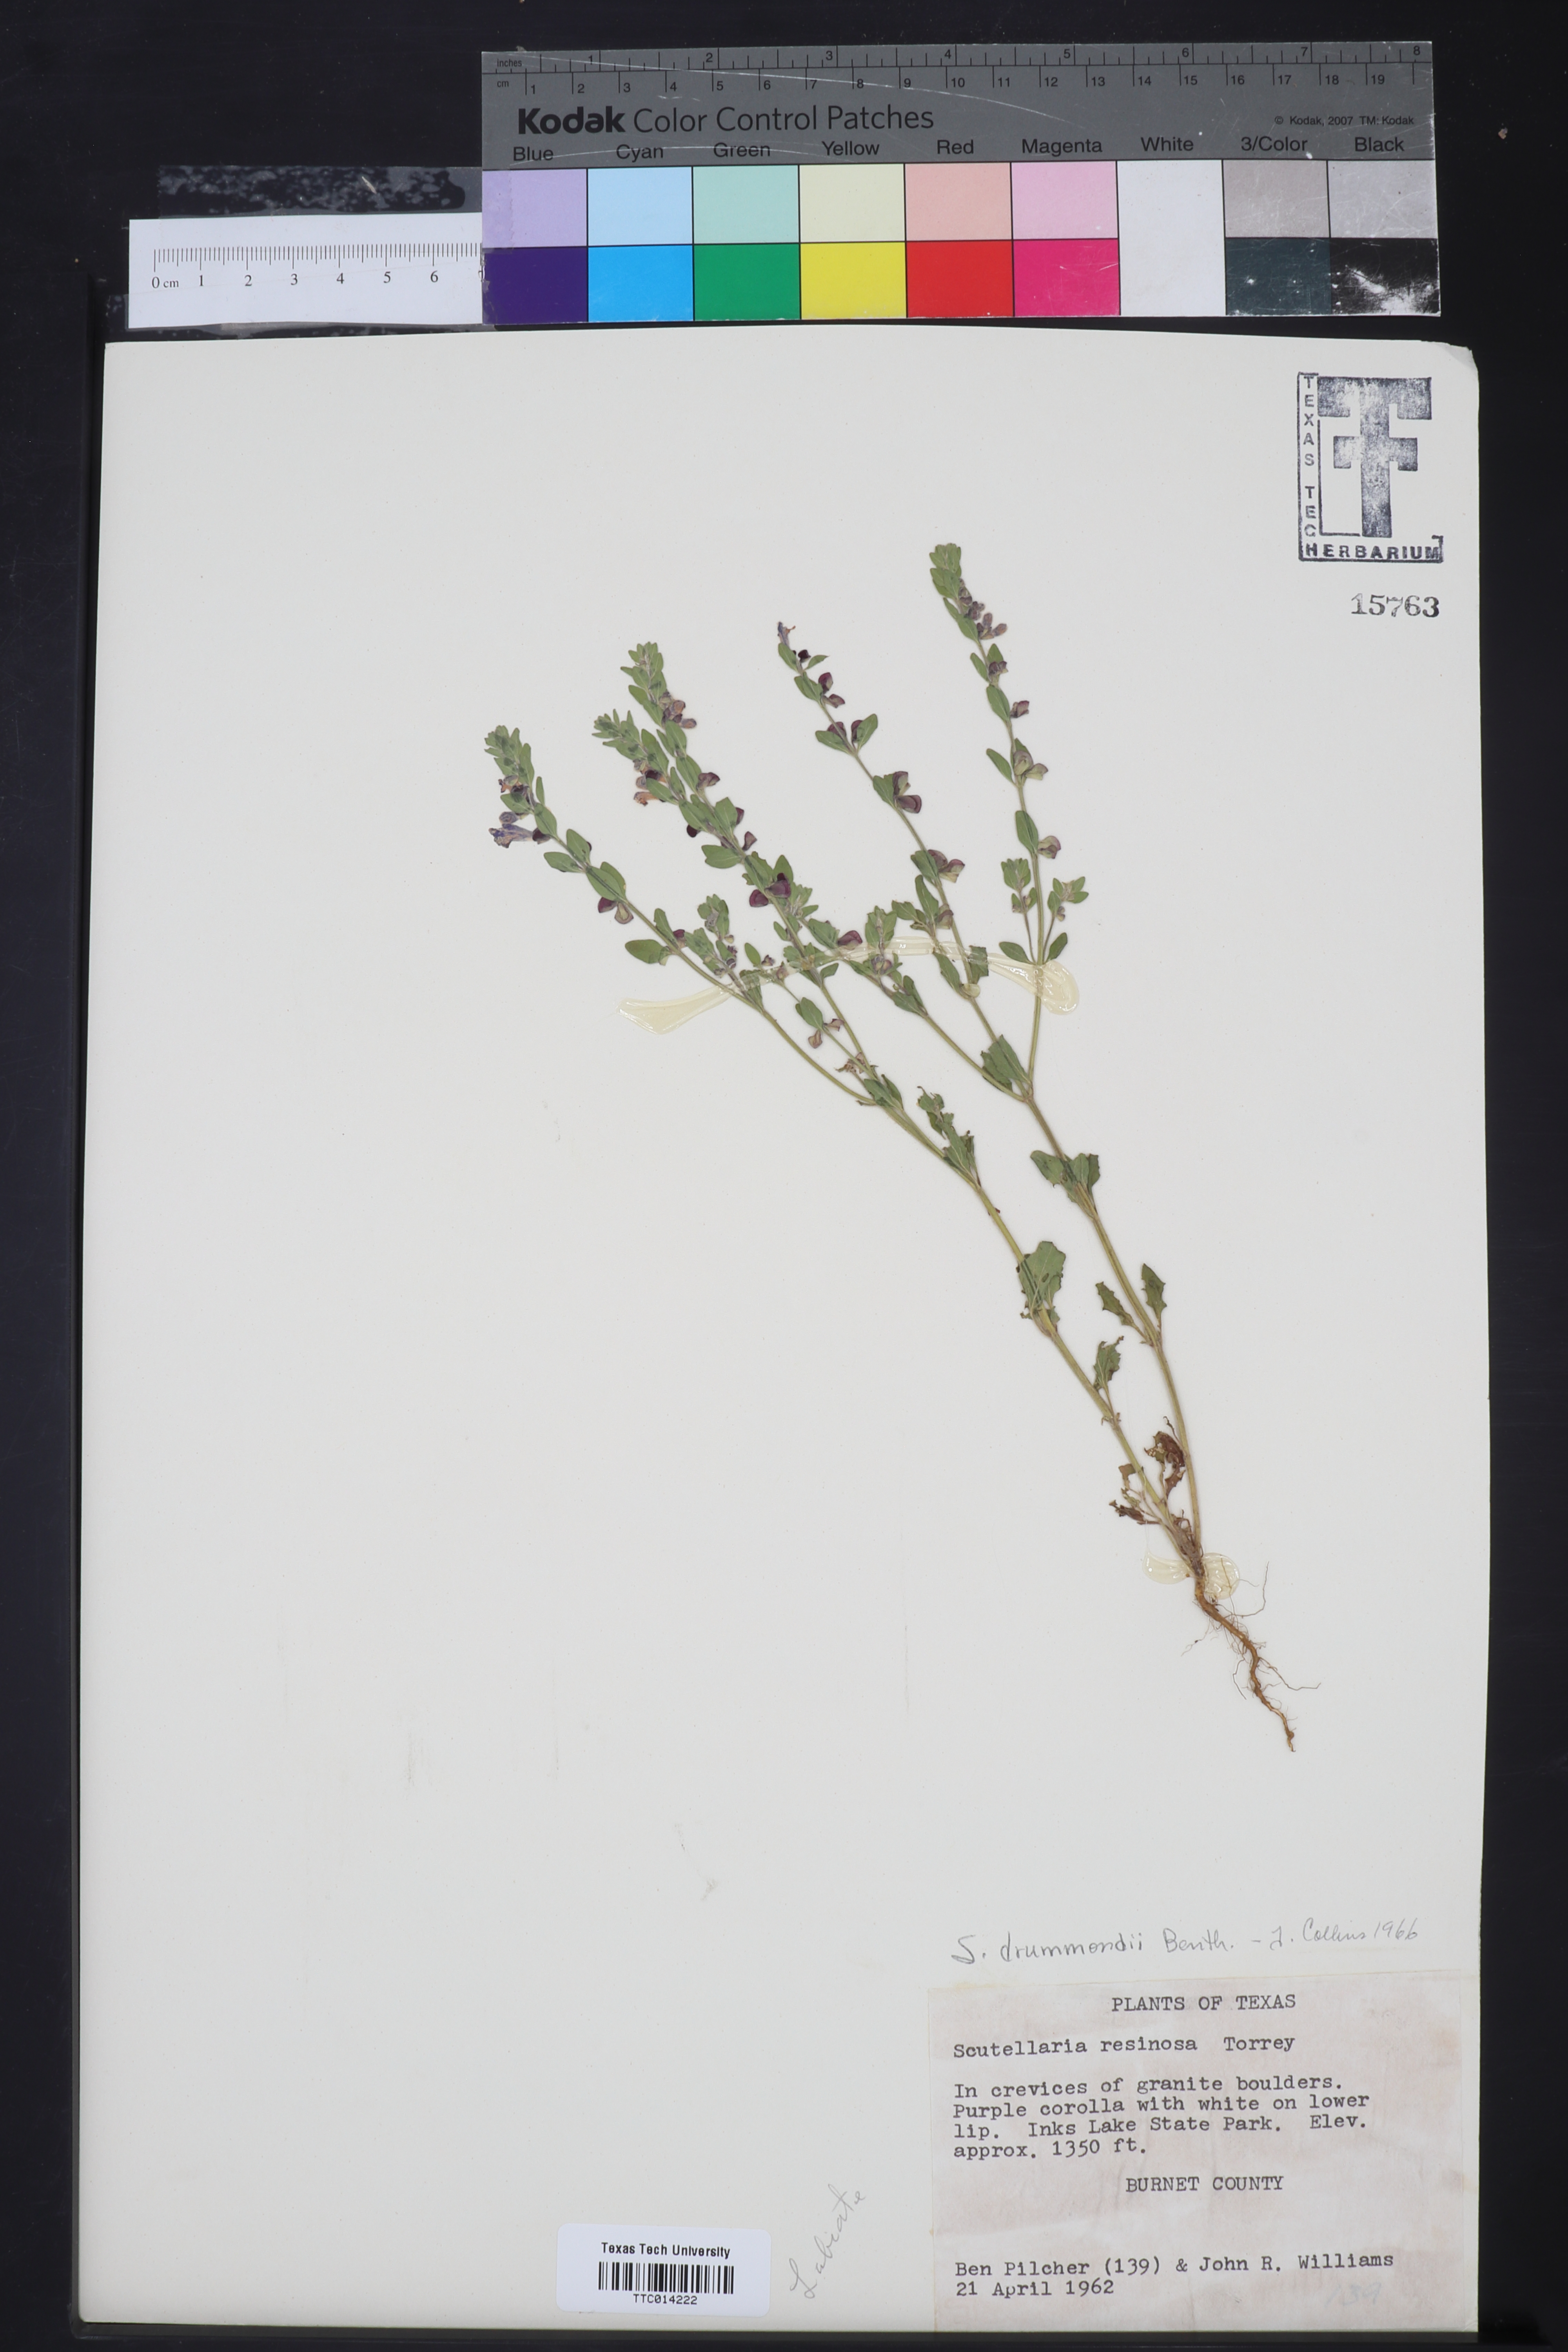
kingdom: Plantae
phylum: Tracheophyta
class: Magnoliopsida
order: Lamiales
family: Lamiaceae
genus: Scutellaria
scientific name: Scutellaria drummondii
